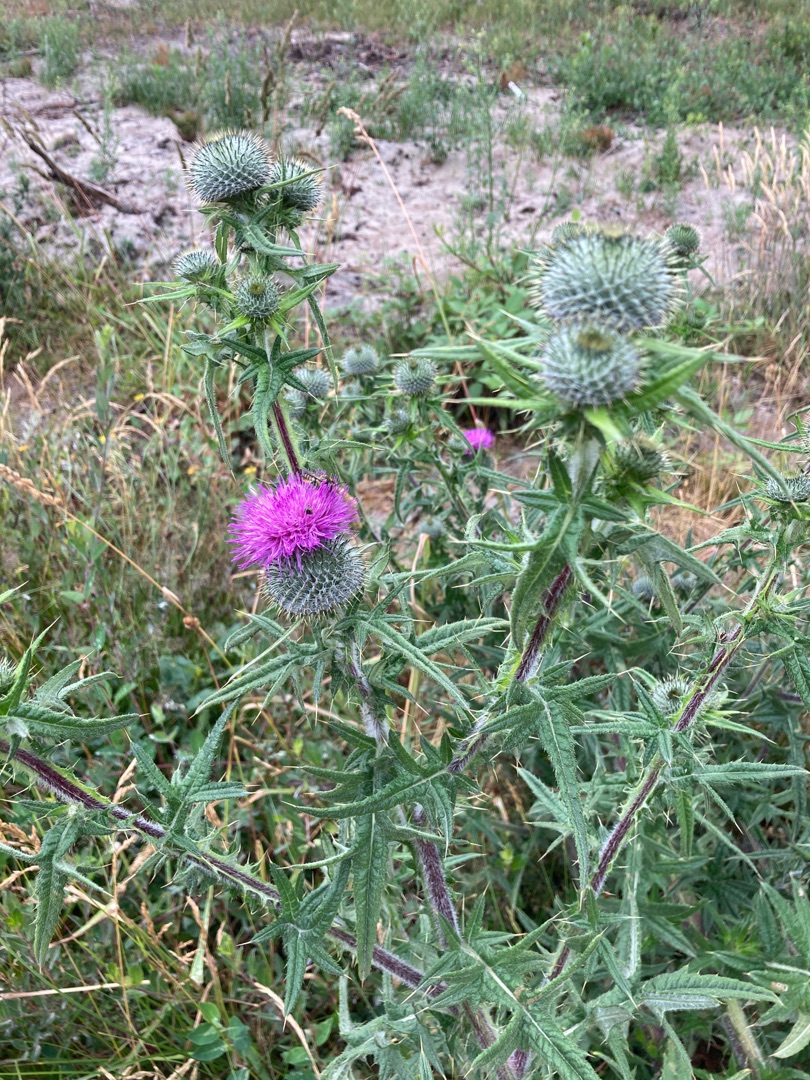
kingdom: Plantae
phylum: Tracheophyta
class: Magnoliopsida
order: Asterales
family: Asteraceae
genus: Cirsium
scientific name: Cirsium vulgare
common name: Horse-tidsel
